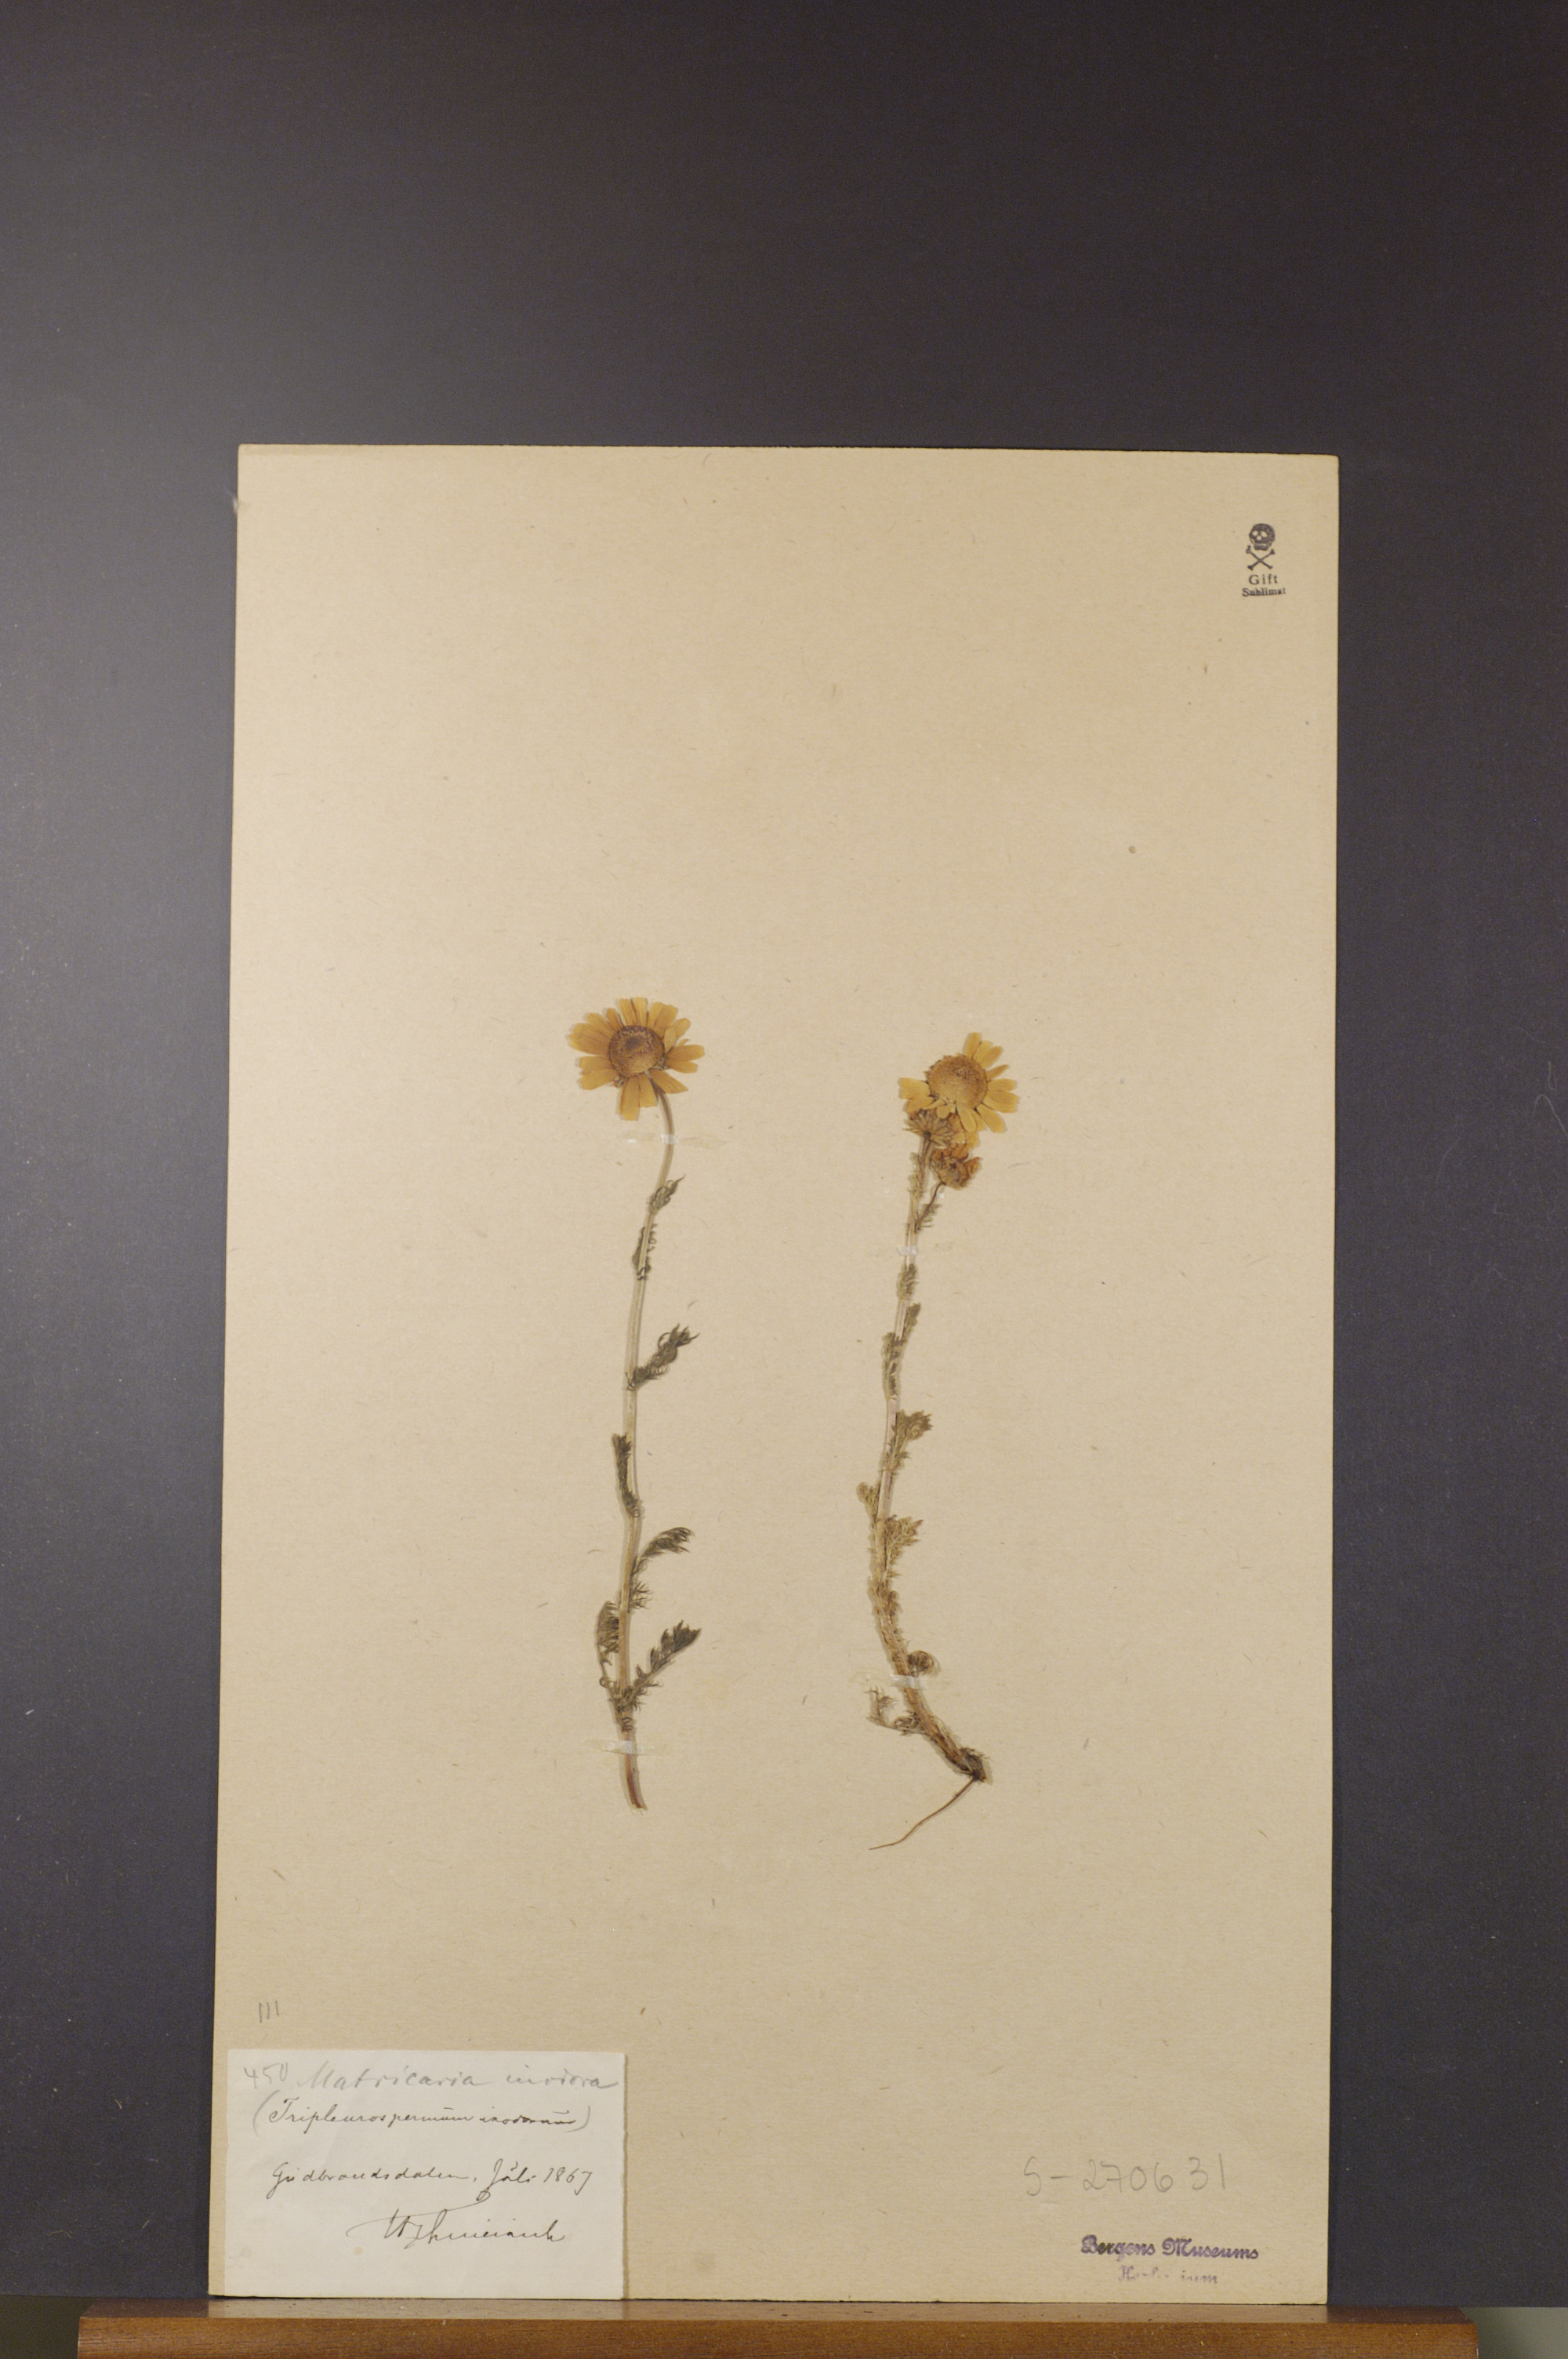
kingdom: Plantae
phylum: Tracheophyta
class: Magnoliopsida
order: Asterales
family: Asteraceae
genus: Tripleurospermum
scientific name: Tripleurospermum inodorum
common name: Scentless mayweed
